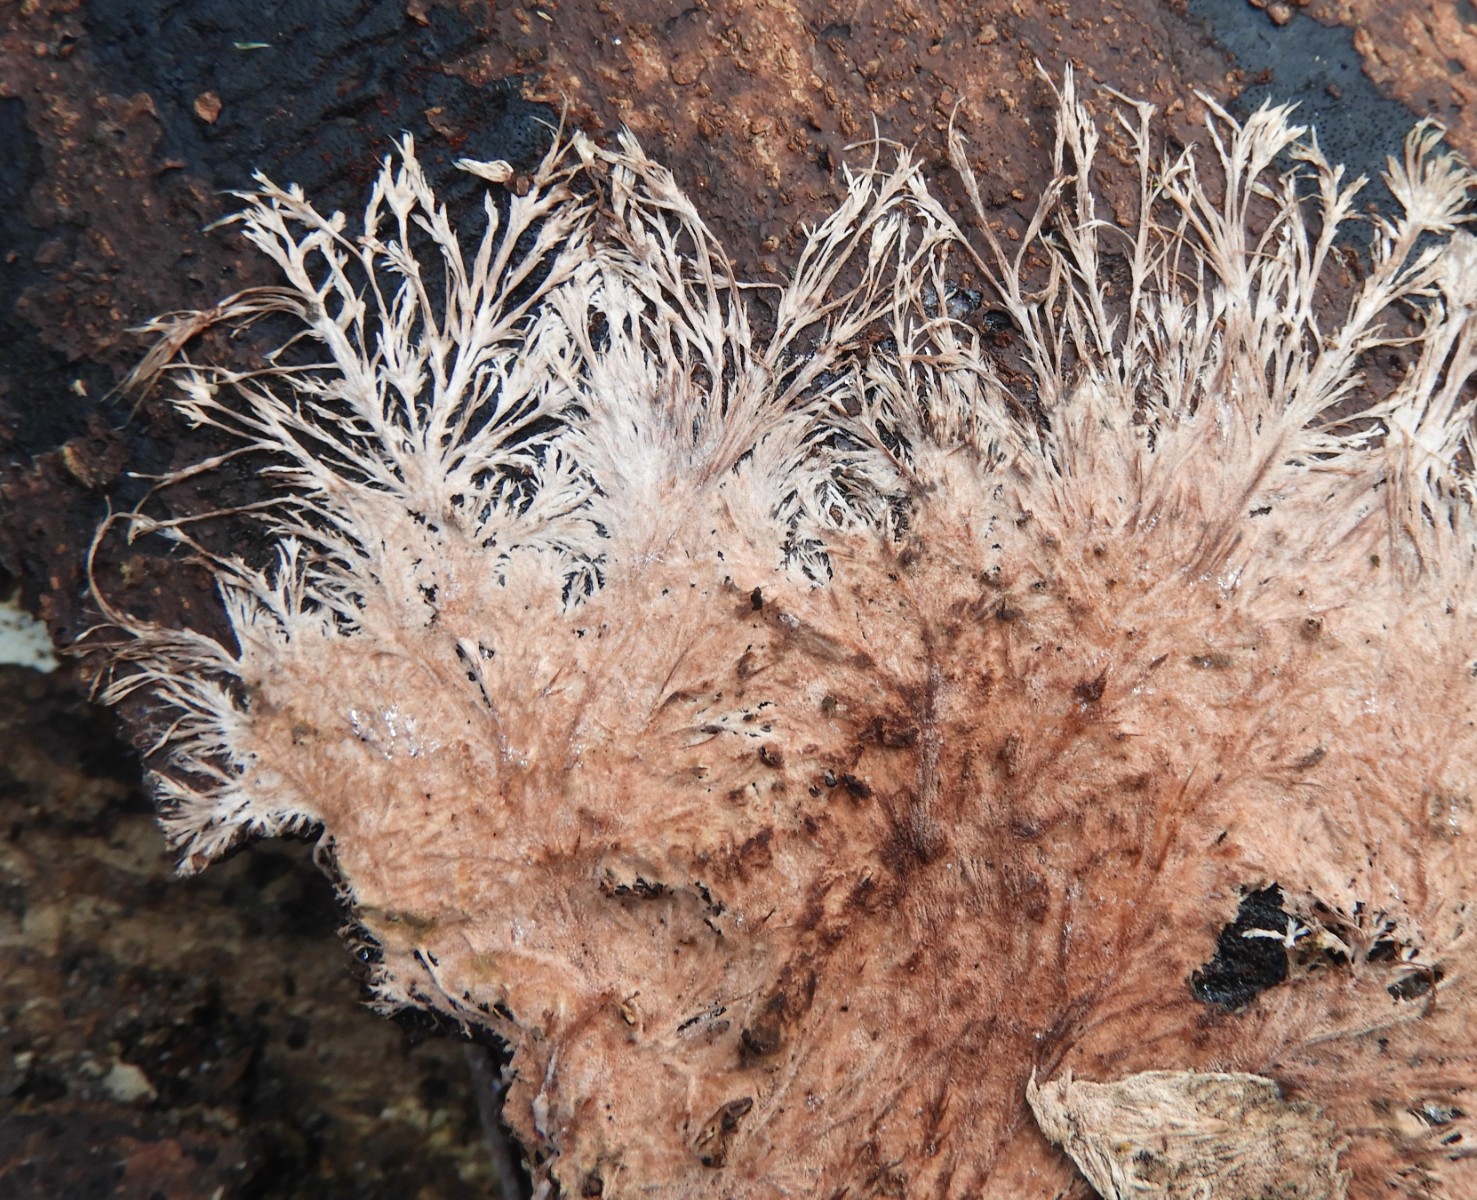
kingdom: Fungi
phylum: Basidiomycota
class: Agaricomycetes
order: Polyporales
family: Steccherinaceae
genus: Steccherinum
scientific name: Steccherinum fimbriatum
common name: trådet skønpig
